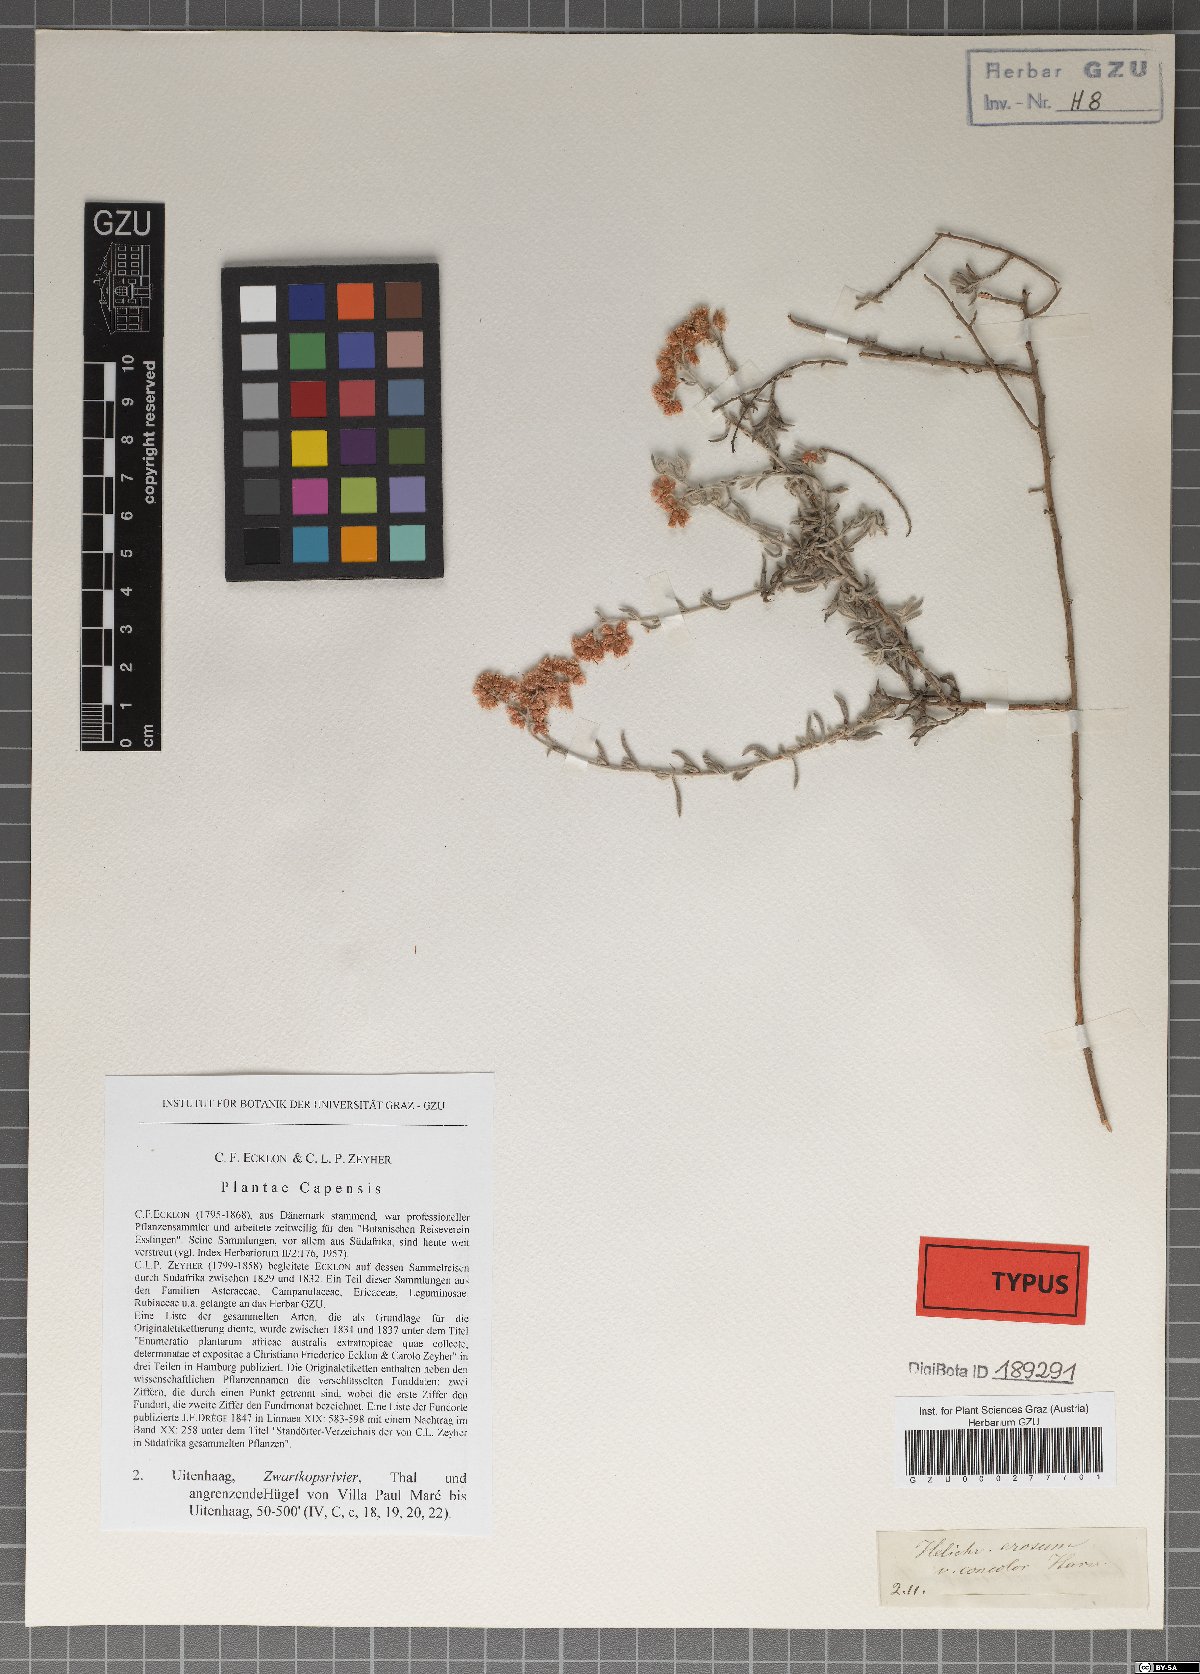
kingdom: Plantae
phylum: Tracheophyta
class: Magnoliopsida
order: Asterales
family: Asteraceae
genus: Helichrysum
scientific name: Helichrysum rosum
